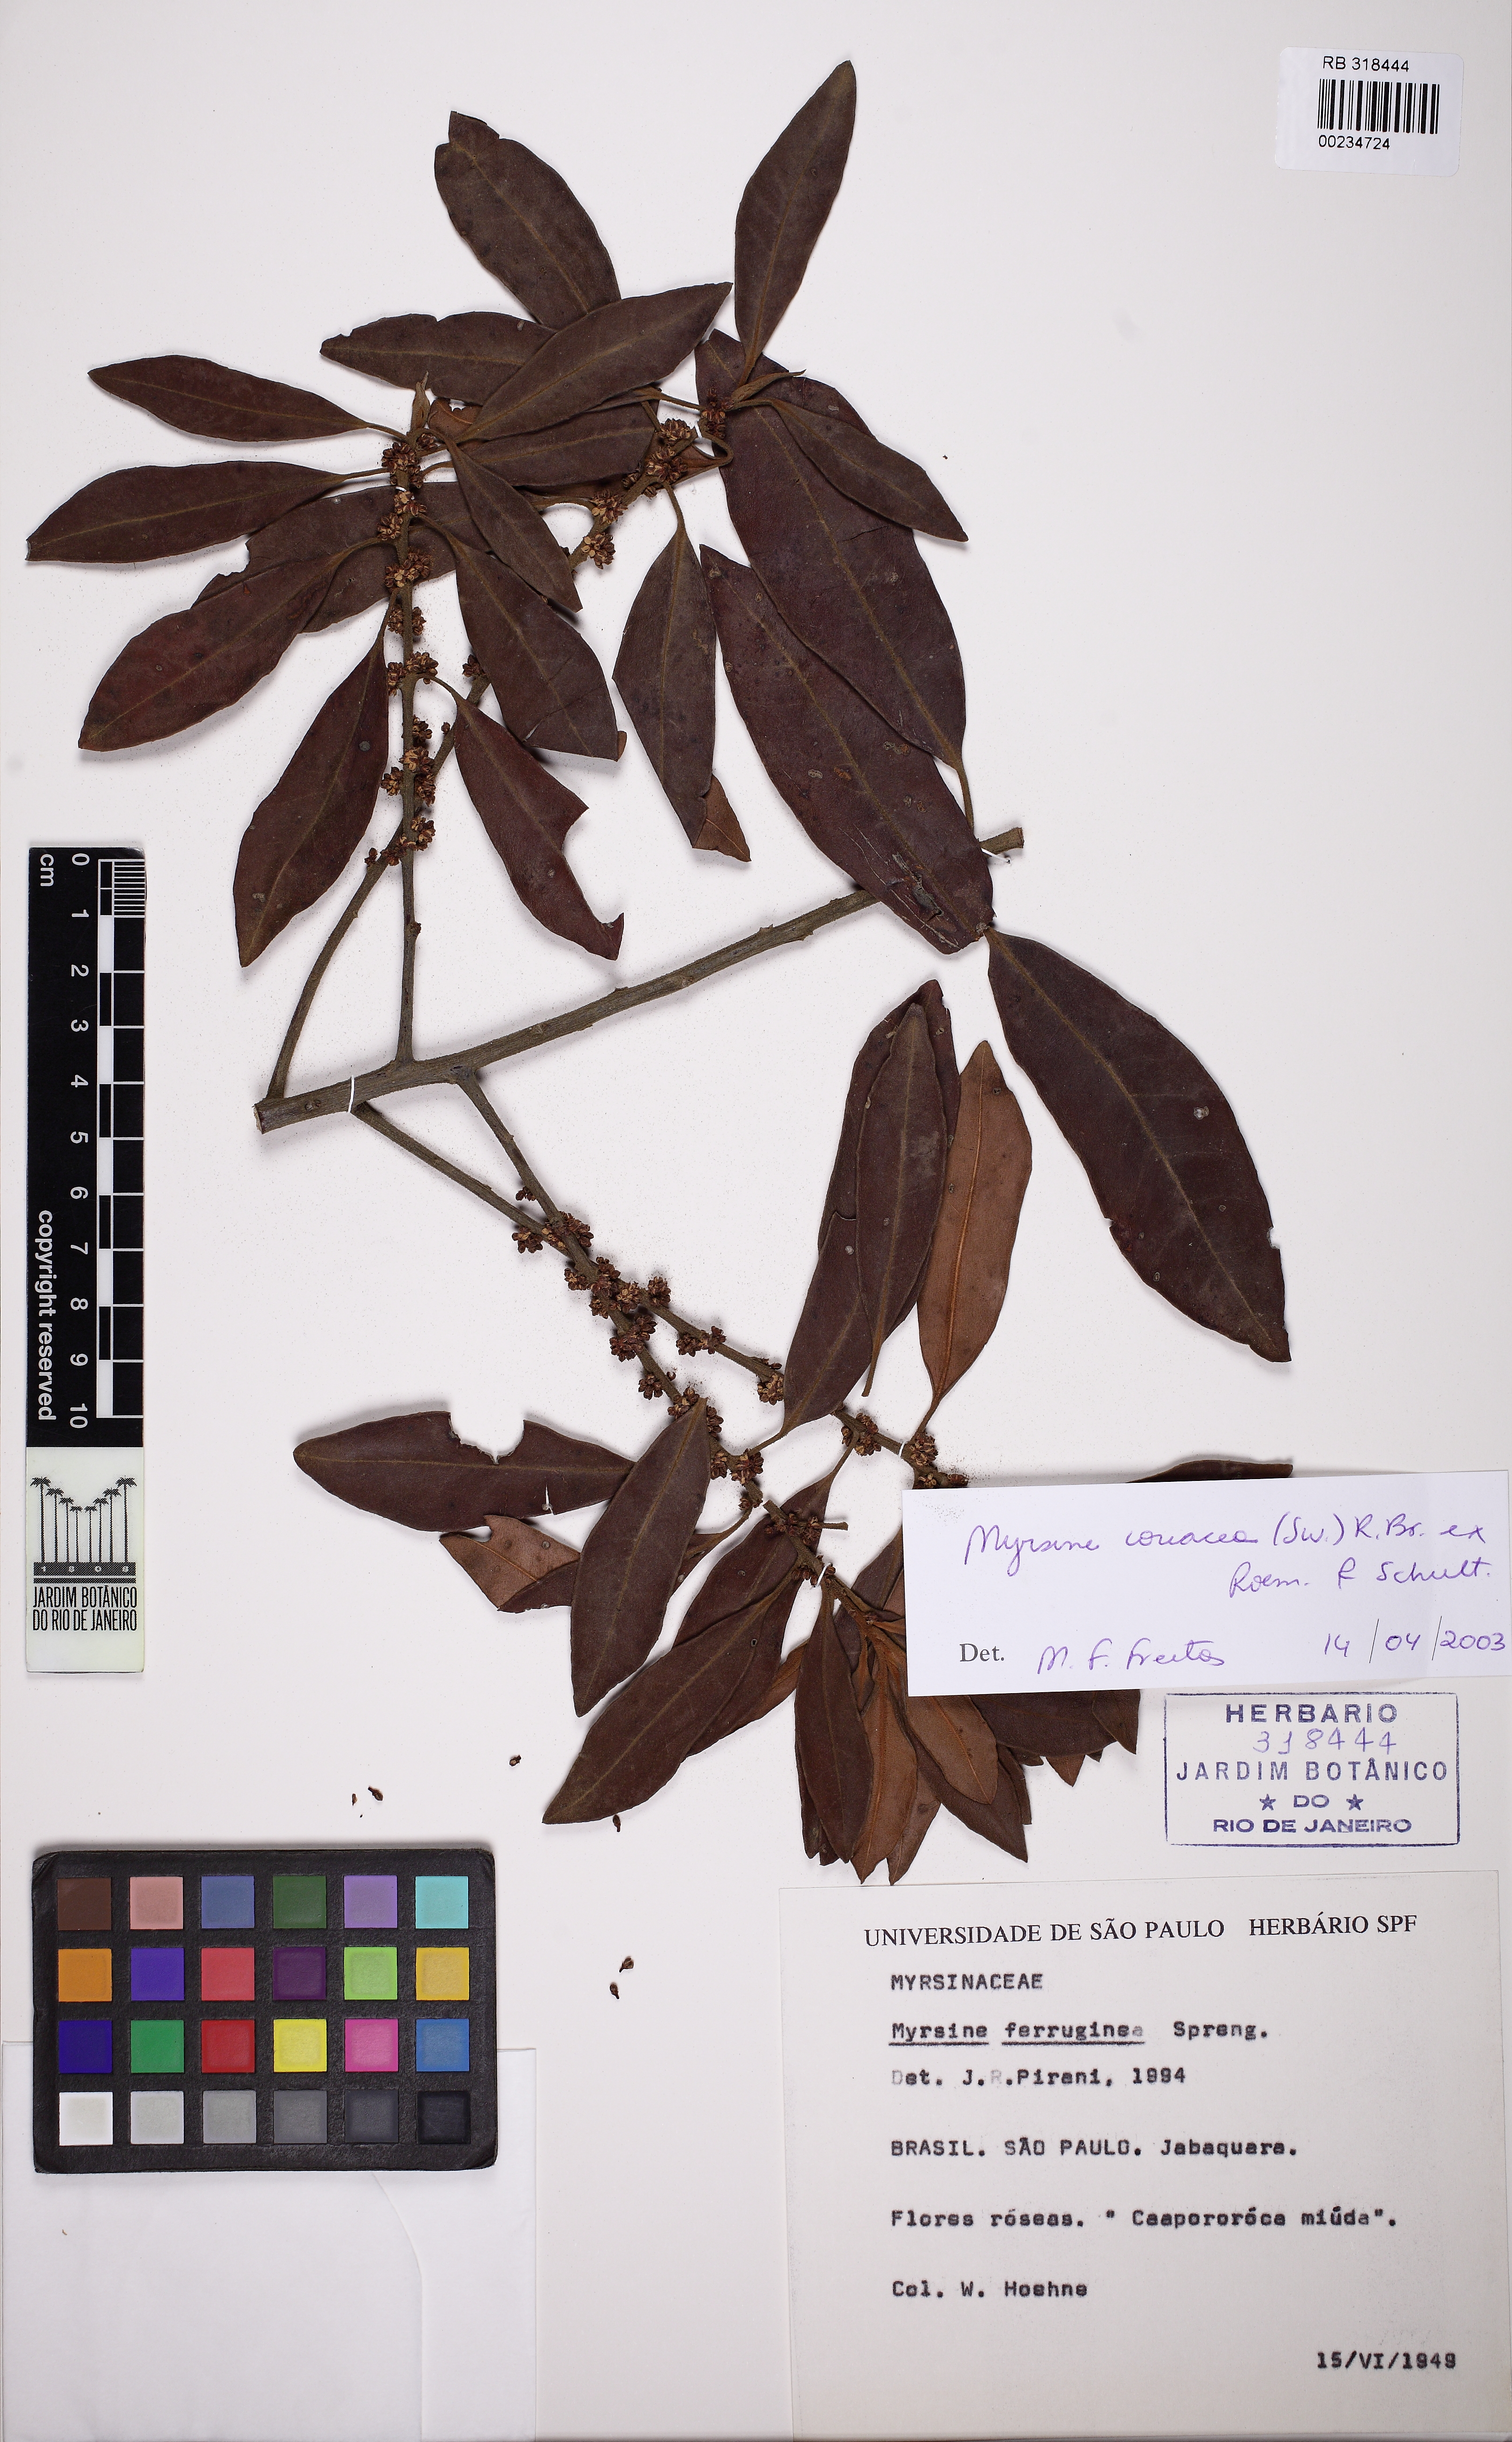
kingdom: Plantae
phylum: Tracheophyta
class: Magnoliopsida
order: Ericales
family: Primulaceae
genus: Myrsine
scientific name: Myrsine coriacea
